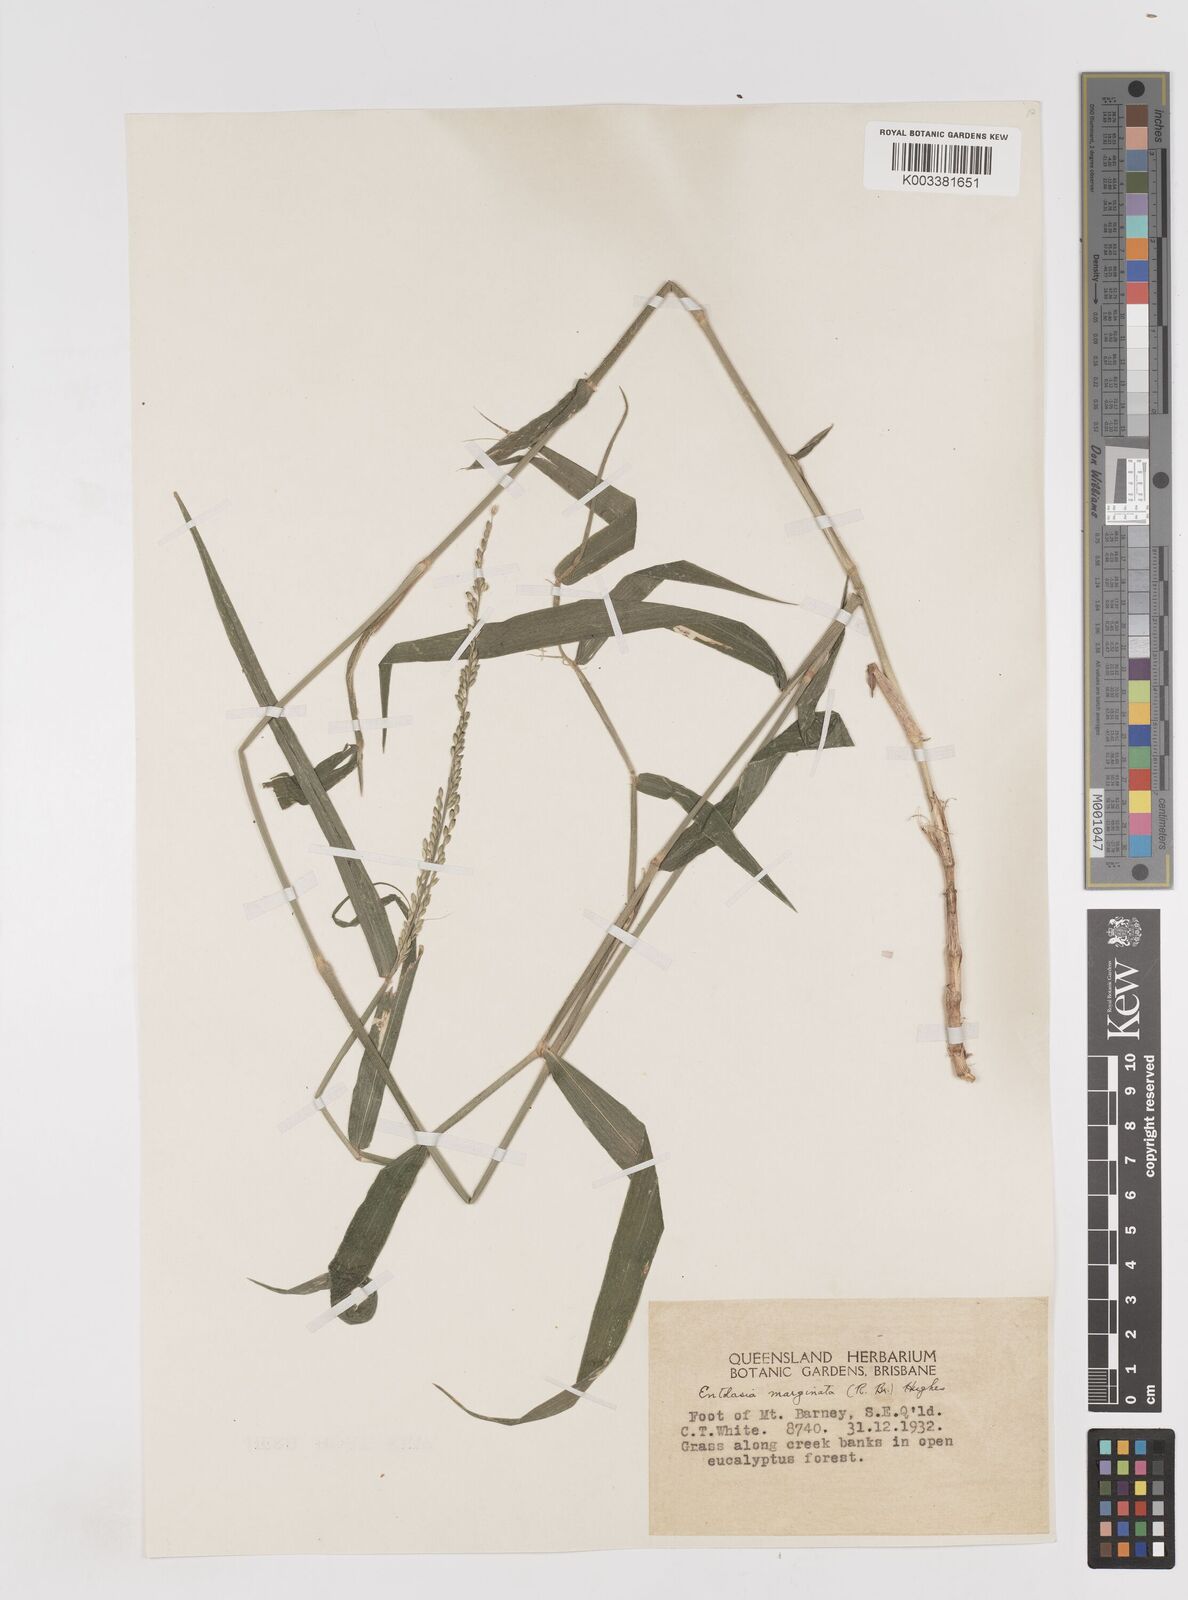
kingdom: Plantae
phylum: Tracheophyta
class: Liliopsida
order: Poales
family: Poaceae
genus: Entolasia
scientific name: Entolasia marginata
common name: Australian panicgrass
